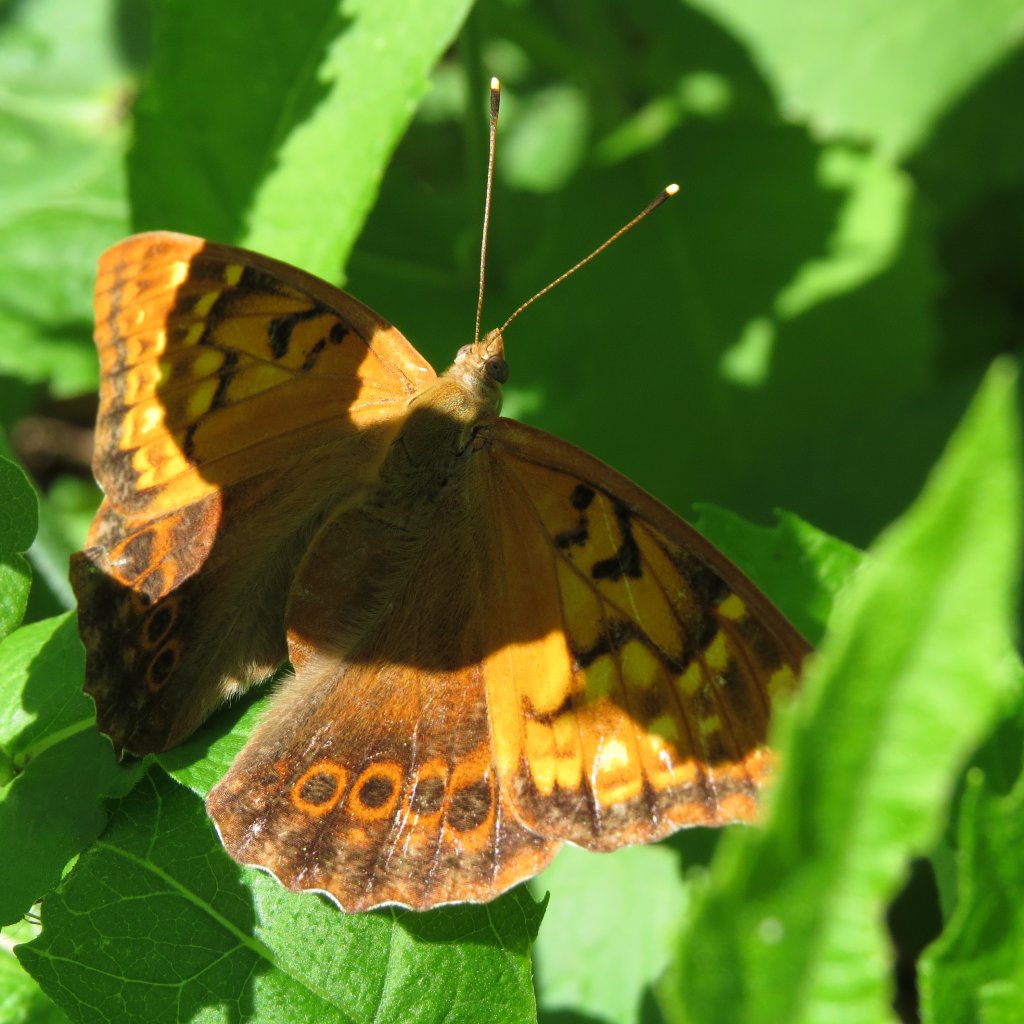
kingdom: Animalia
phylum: Arthropoda
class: Insecta
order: Lepidoptera
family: Nymphalidae
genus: Asterocampa
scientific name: Asterocampa clyton
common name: Tawny Emperor
